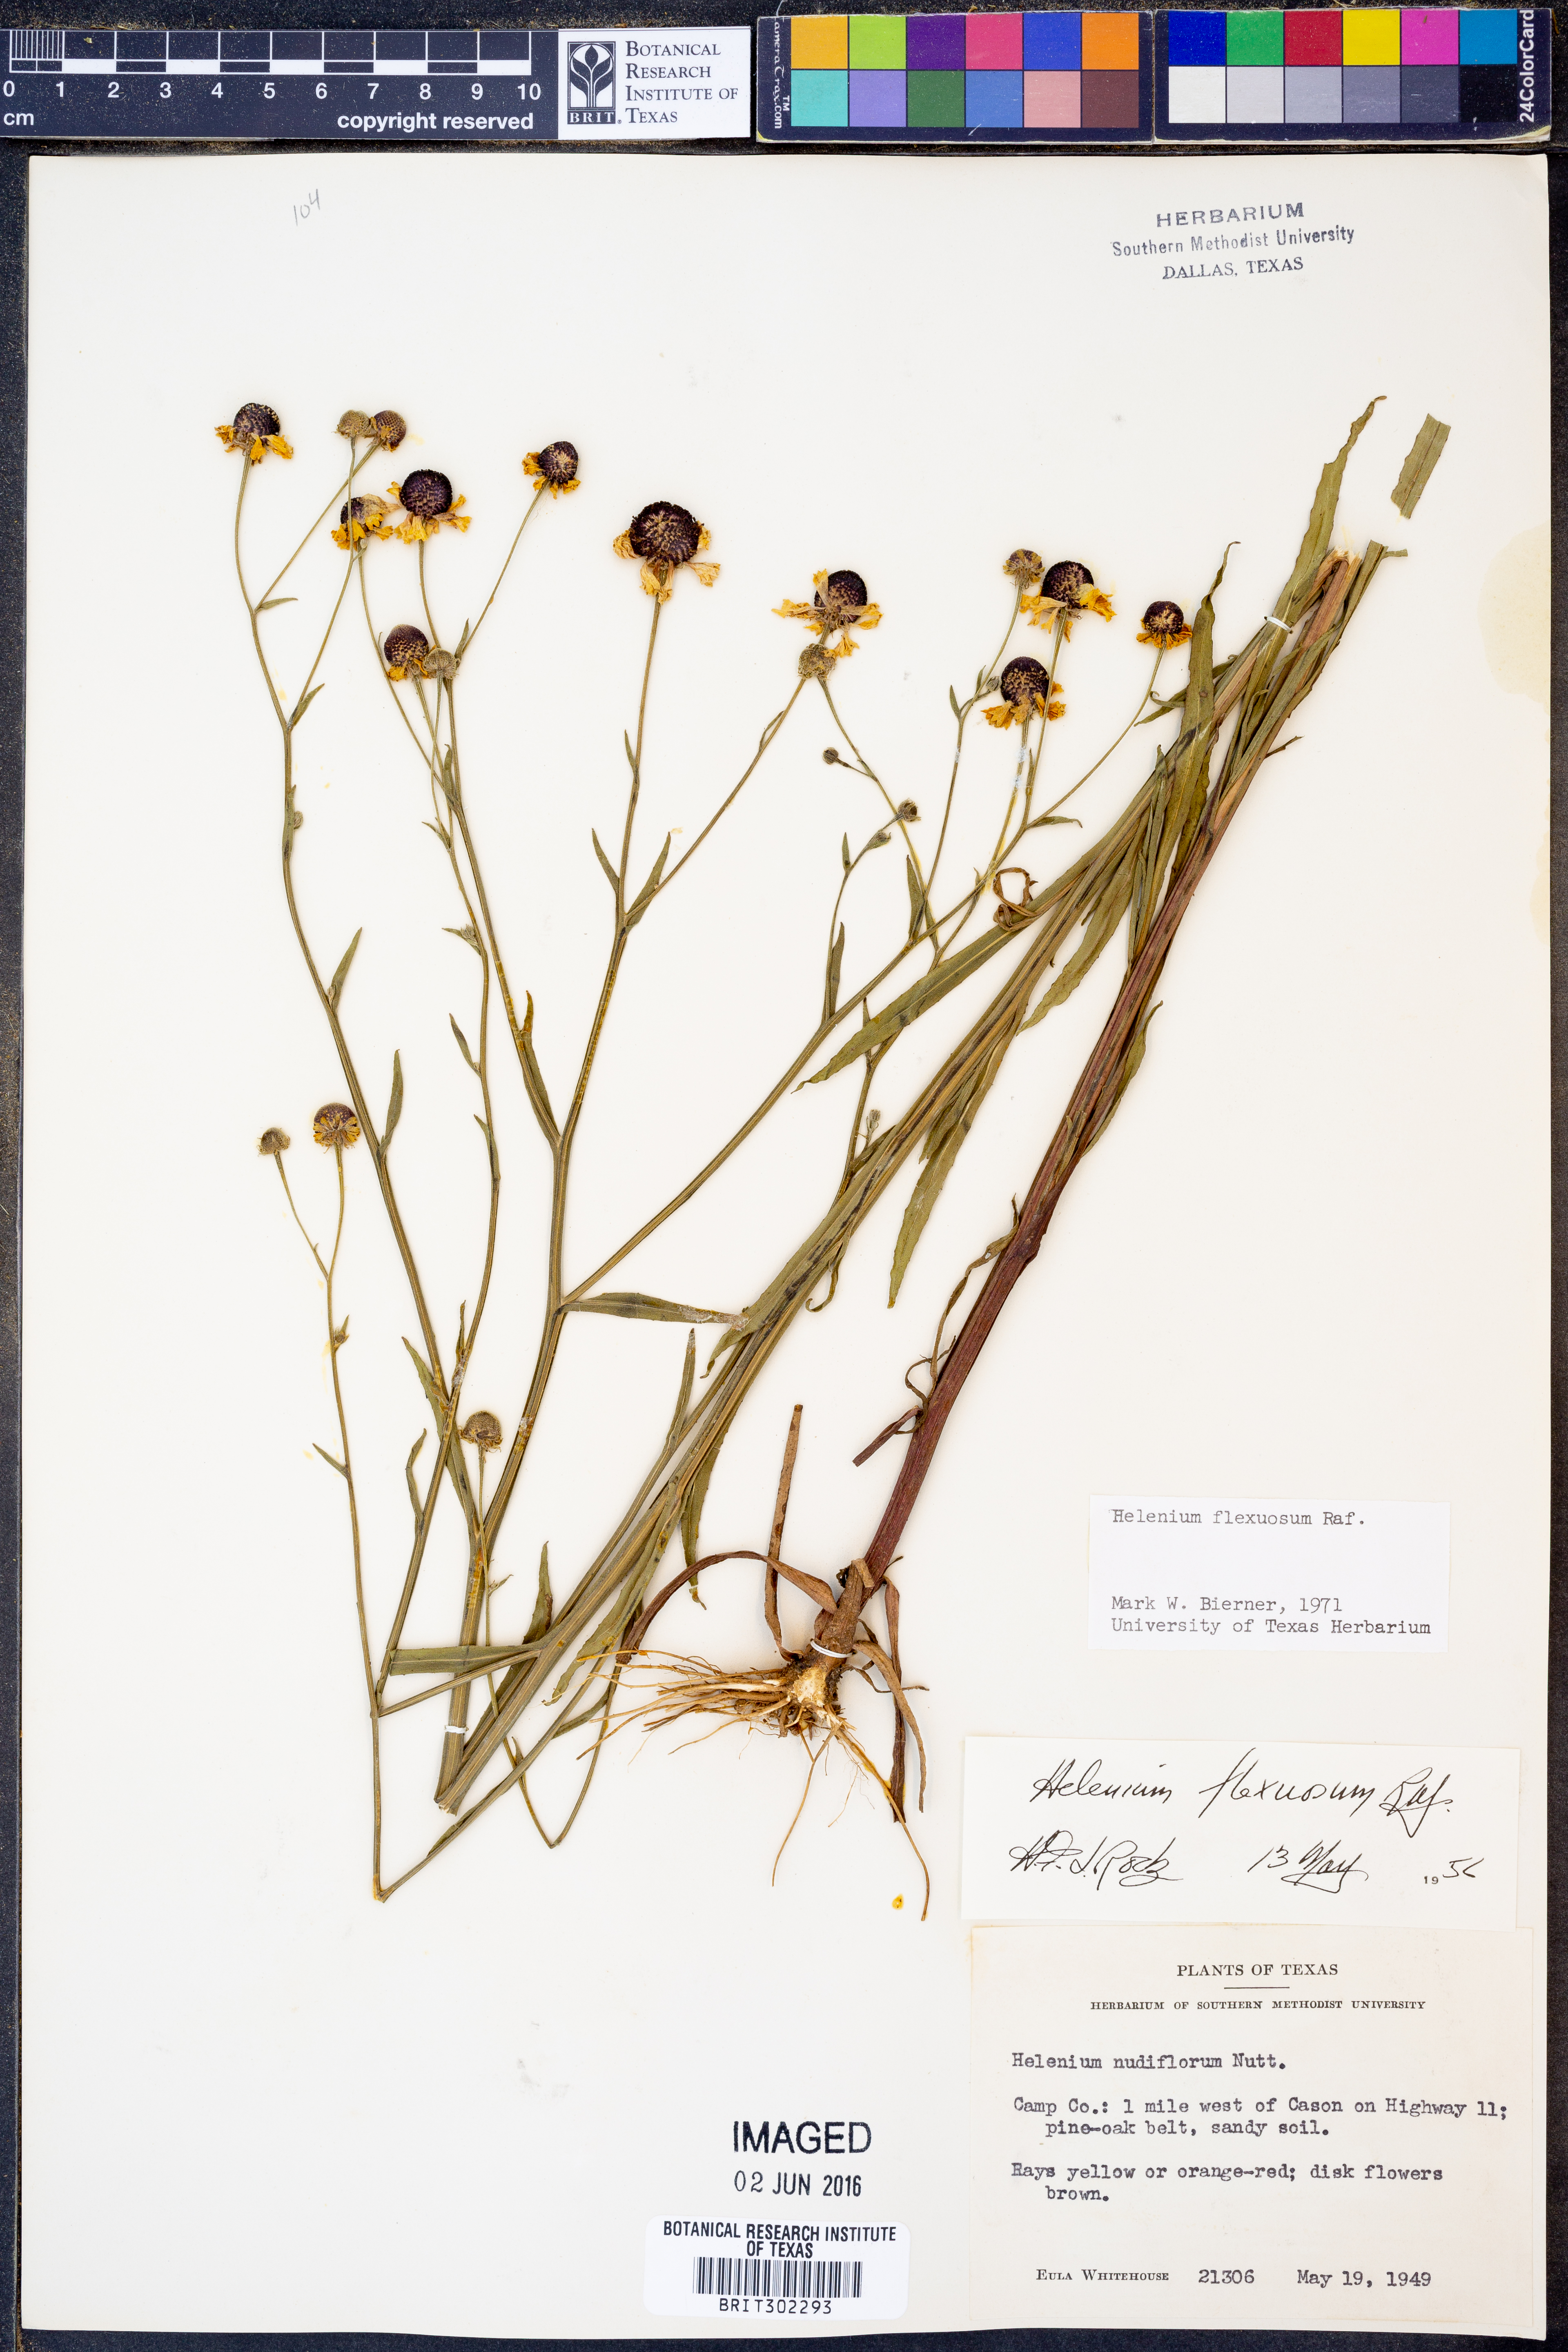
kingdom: Plantae
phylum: Tracheophyta
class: Magnoliopsida
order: Asterales
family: Asteraceae
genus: Helenium
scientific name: Helenium flexuosum
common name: Naked-flowered sneezeweed
